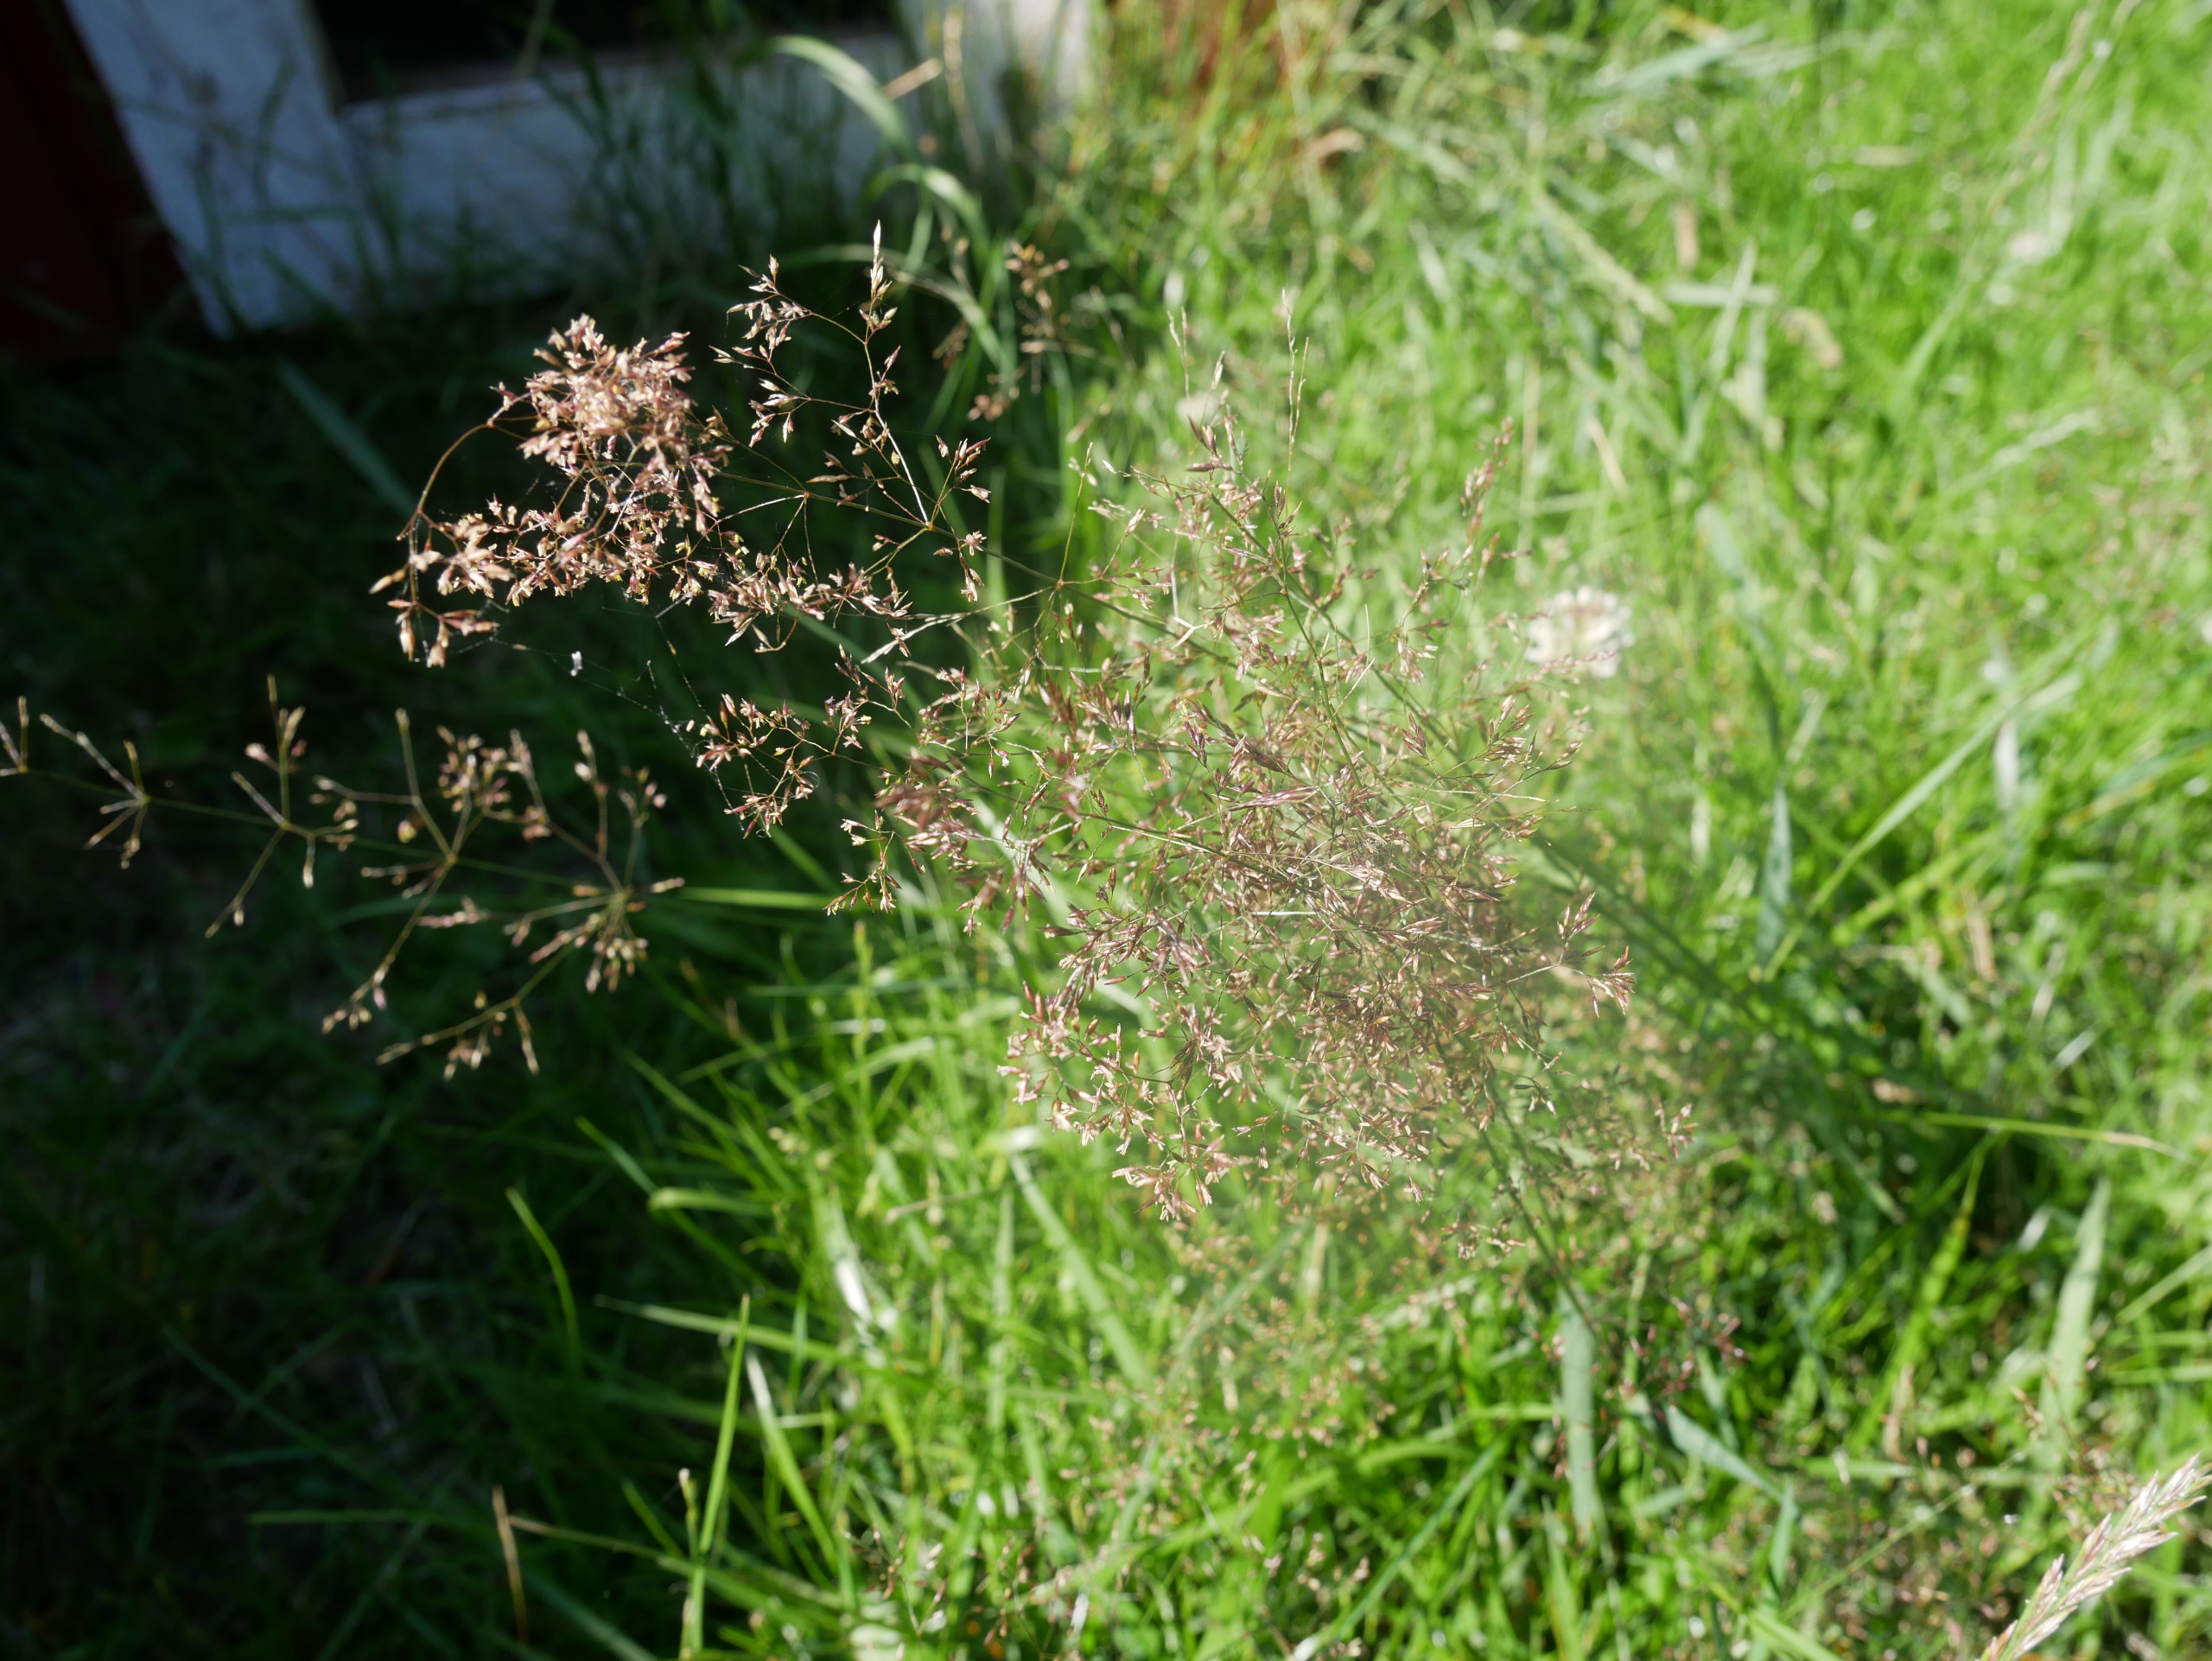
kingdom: Plantae
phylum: Tracheophyta
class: Liliopsida
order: Poales
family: Poaceae
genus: Agrostis
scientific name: Agrostis capillaris
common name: Almindelig hvene
